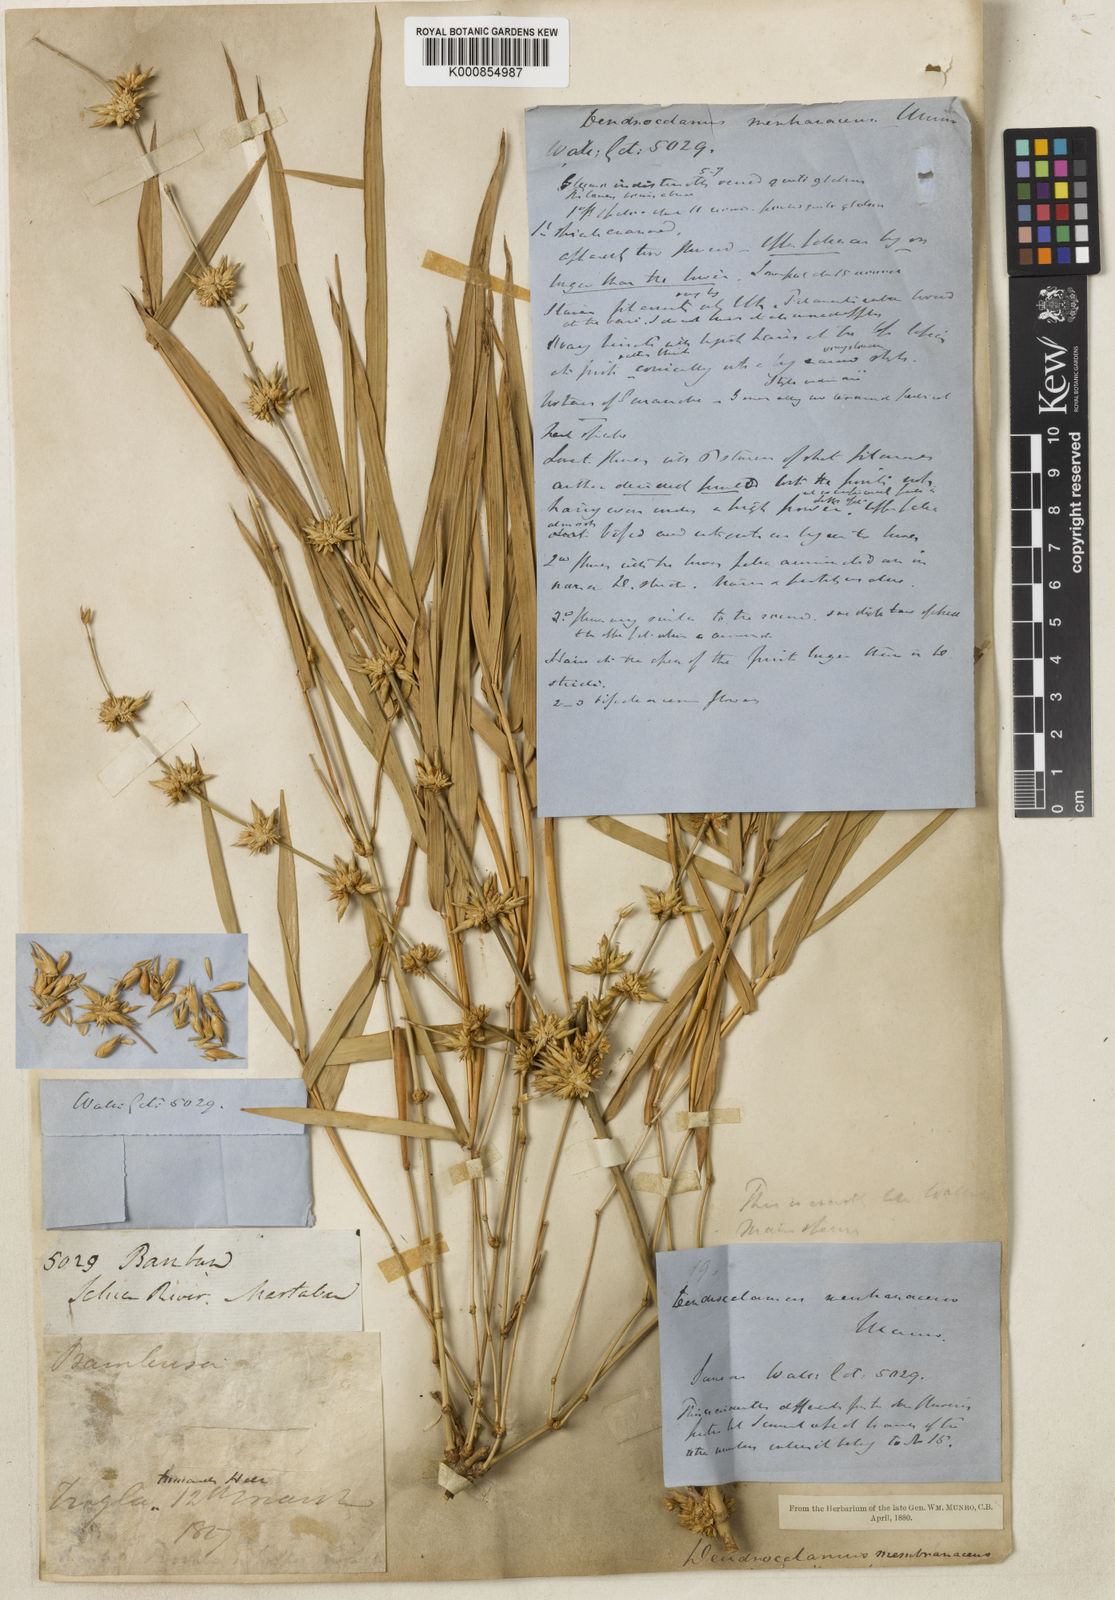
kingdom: Plantae
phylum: Tracheophyta
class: Liliopsida
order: Poales
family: Poaceae
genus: Dendrocalamus
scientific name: Dendrocalamus membranaceus
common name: White bamboo
